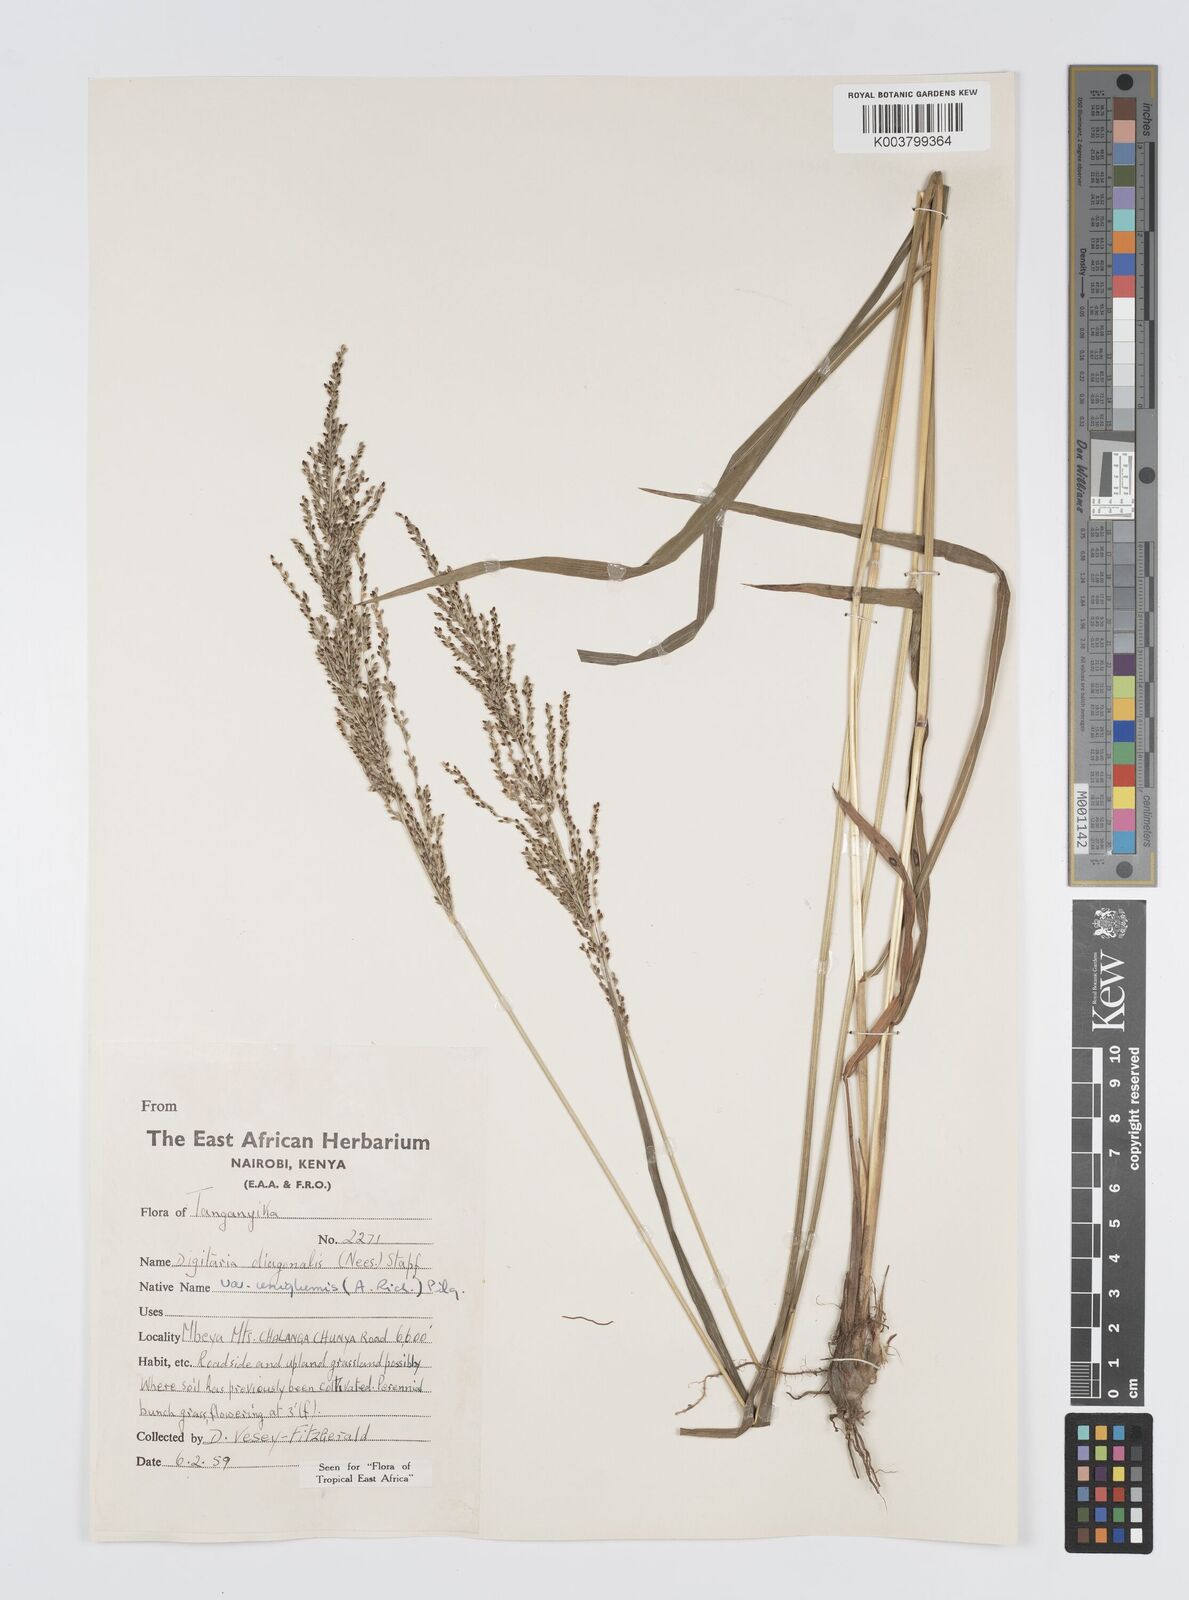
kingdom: Plantae
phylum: Tracheophyta
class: Liliopsida
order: Poales
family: Poaceae
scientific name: Poaceae
